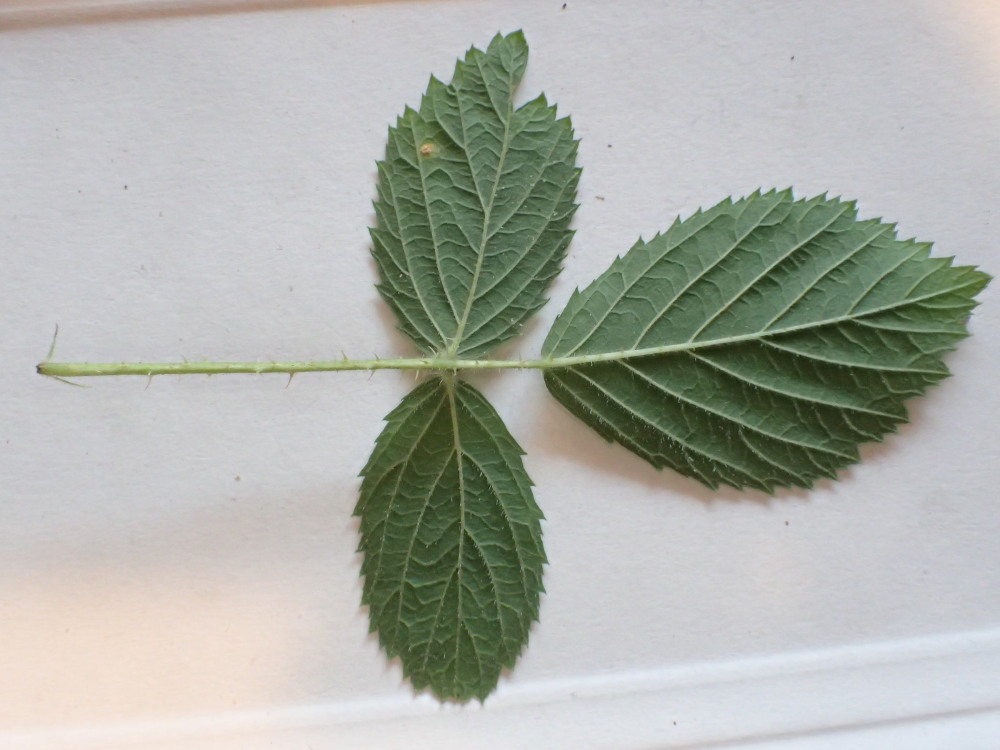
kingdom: Fungi
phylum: Basidiomycota
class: Pucciniomycetes
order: Pucciniales
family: Phragmidiaceae
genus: Phragmidium
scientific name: Phragmidium rubi-idaei
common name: hindbær-flercellerust
